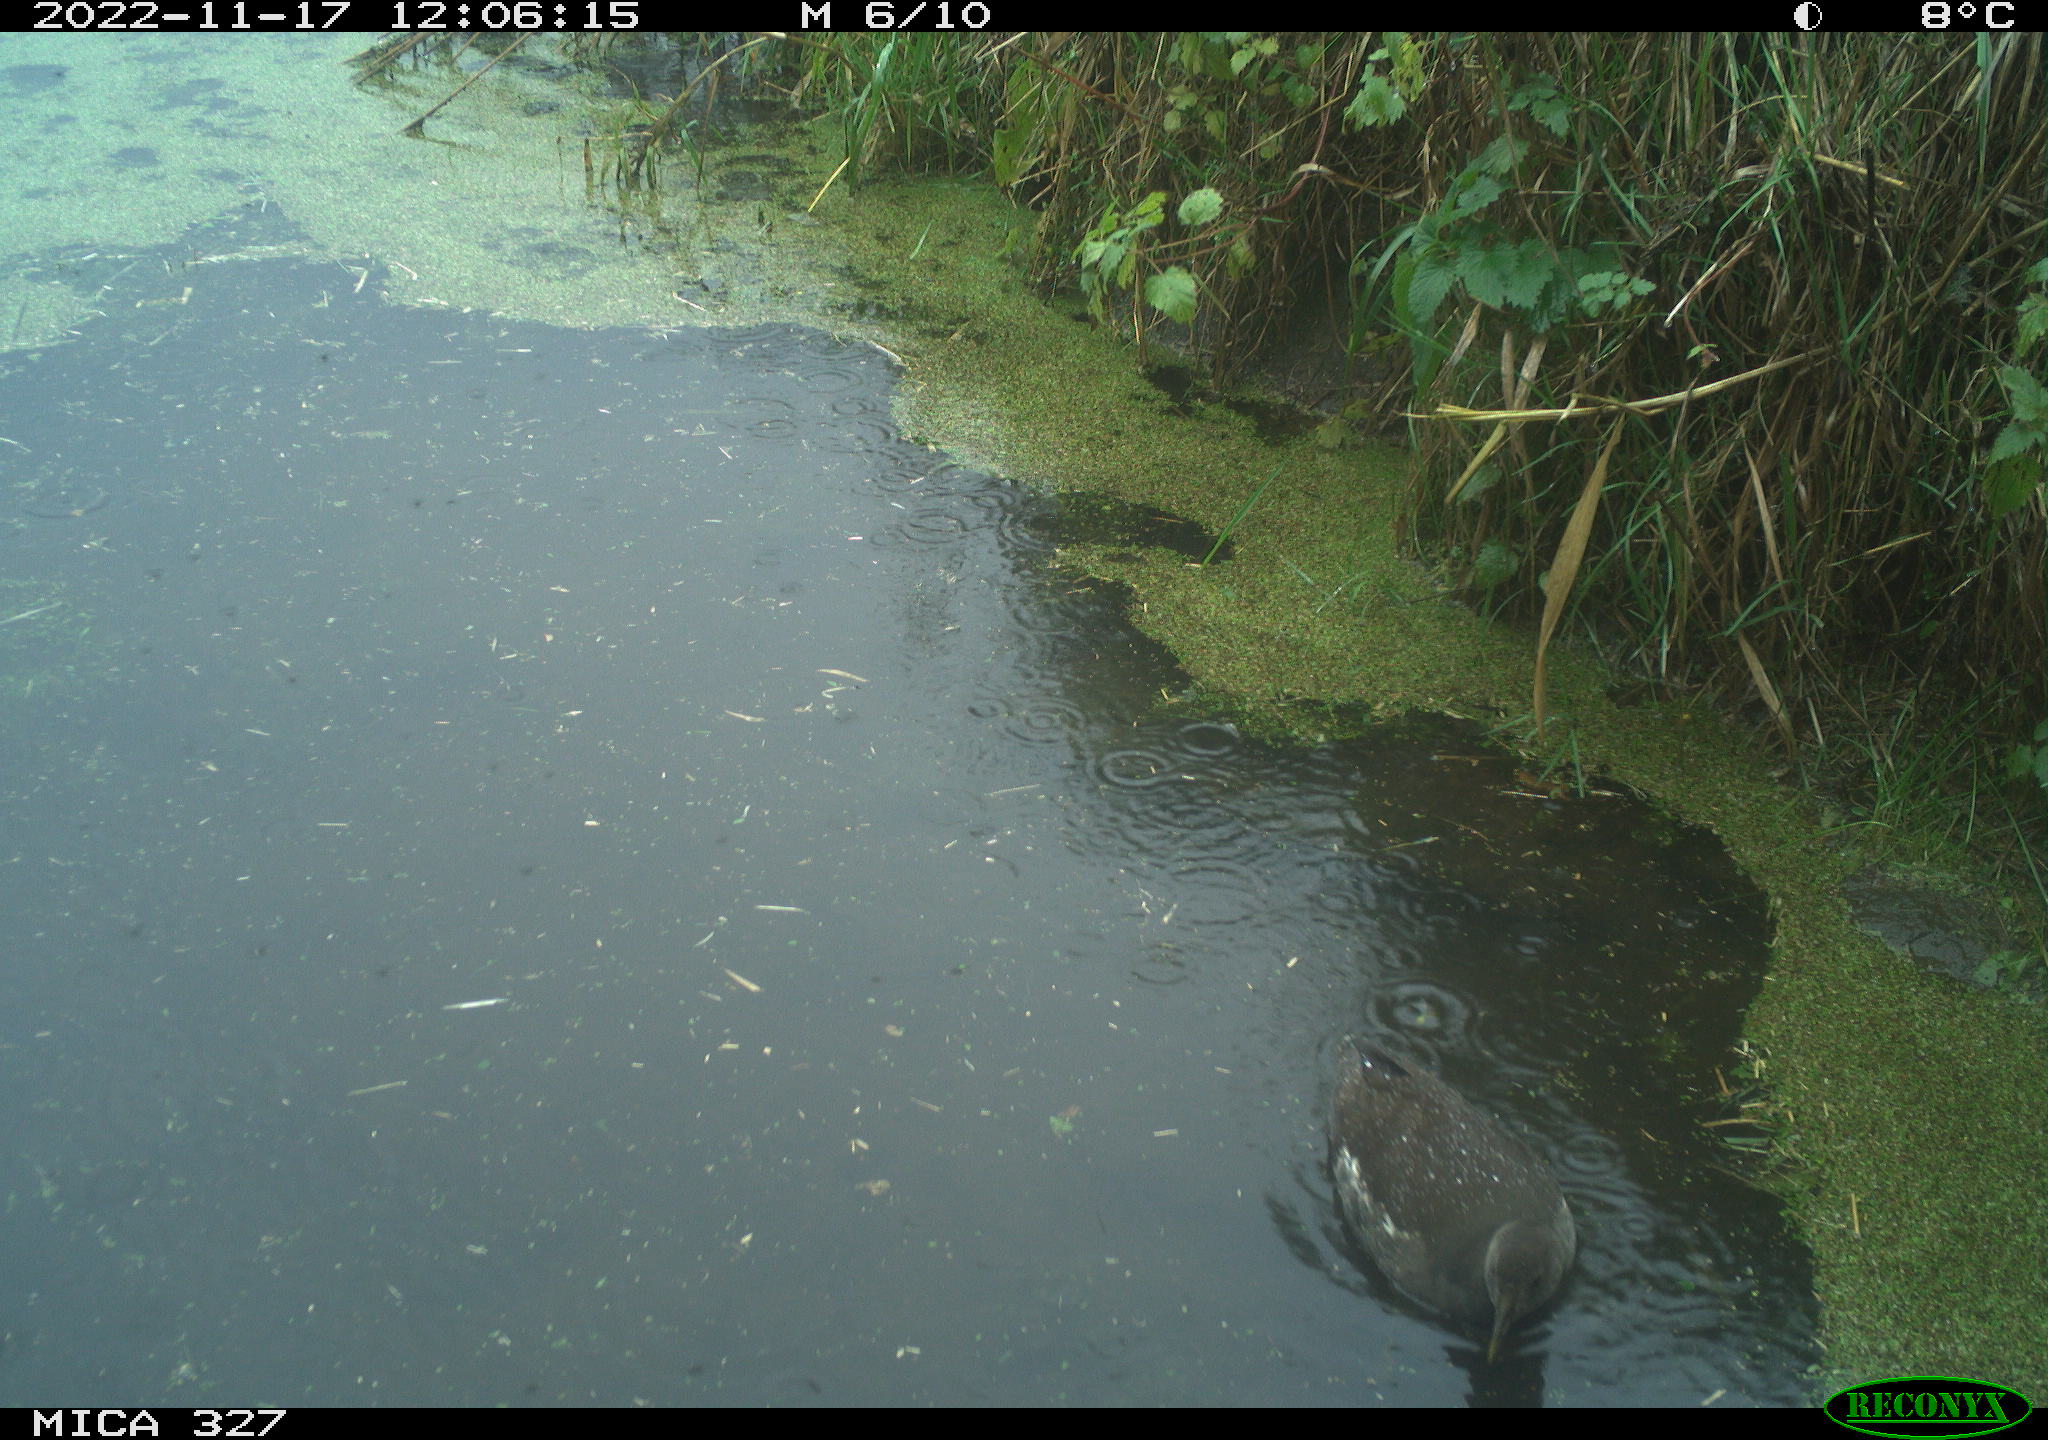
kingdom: Animalia
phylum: Chordata
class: Aves
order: Gruiformes
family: Rallidae
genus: Gallinula
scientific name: Gallinula chloropus
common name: Common moorhen
